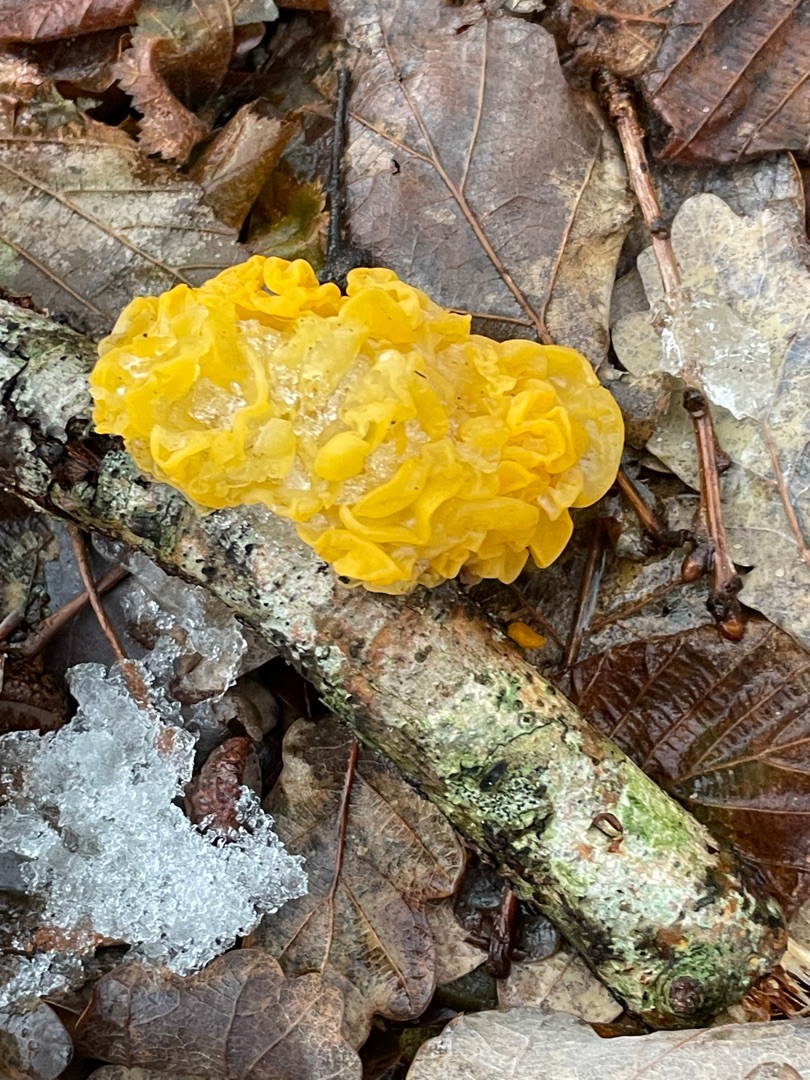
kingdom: Fungi
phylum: Basidiomycota
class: Tremellomycetes
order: Tremellales
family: Tremellaceae
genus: Tremella
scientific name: Tremella mesenterica
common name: Gul bævresvamp
